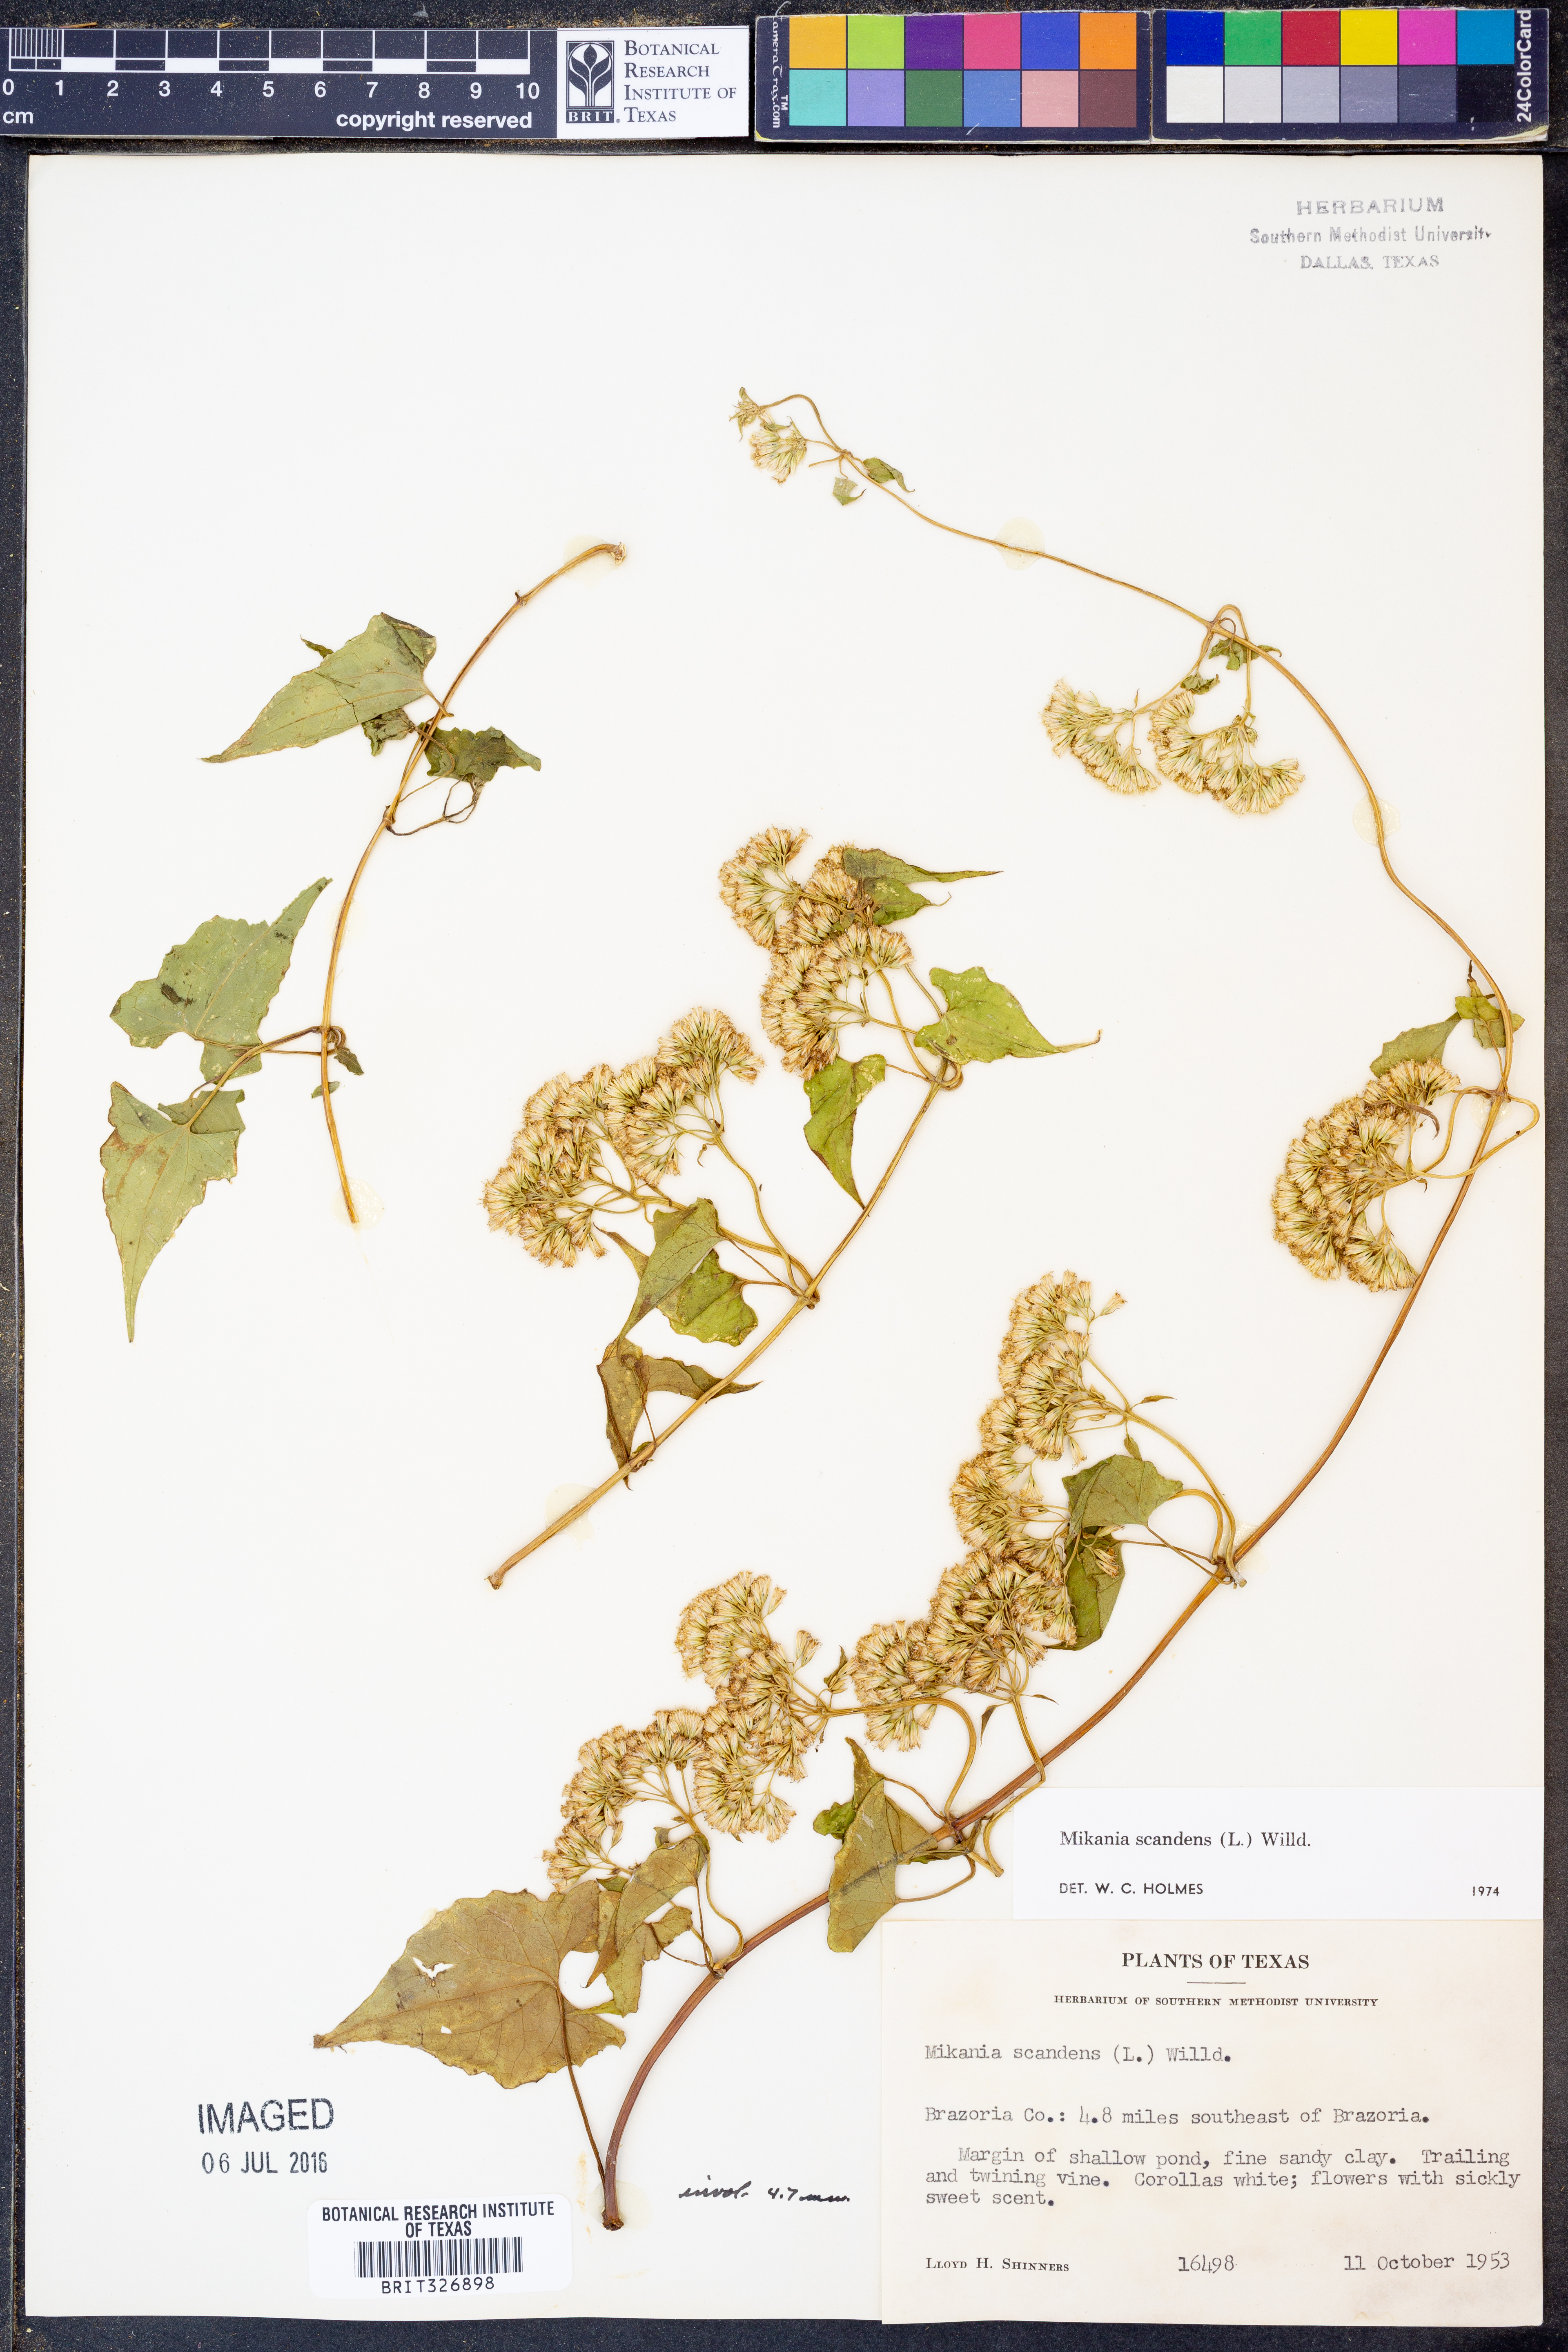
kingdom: Plantae
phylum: Tracheophyta
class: Magnoliopsida
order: Asterales
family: Asteraceae
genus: Mikania
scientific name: Mikania scandens
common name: Climbing hempvine
